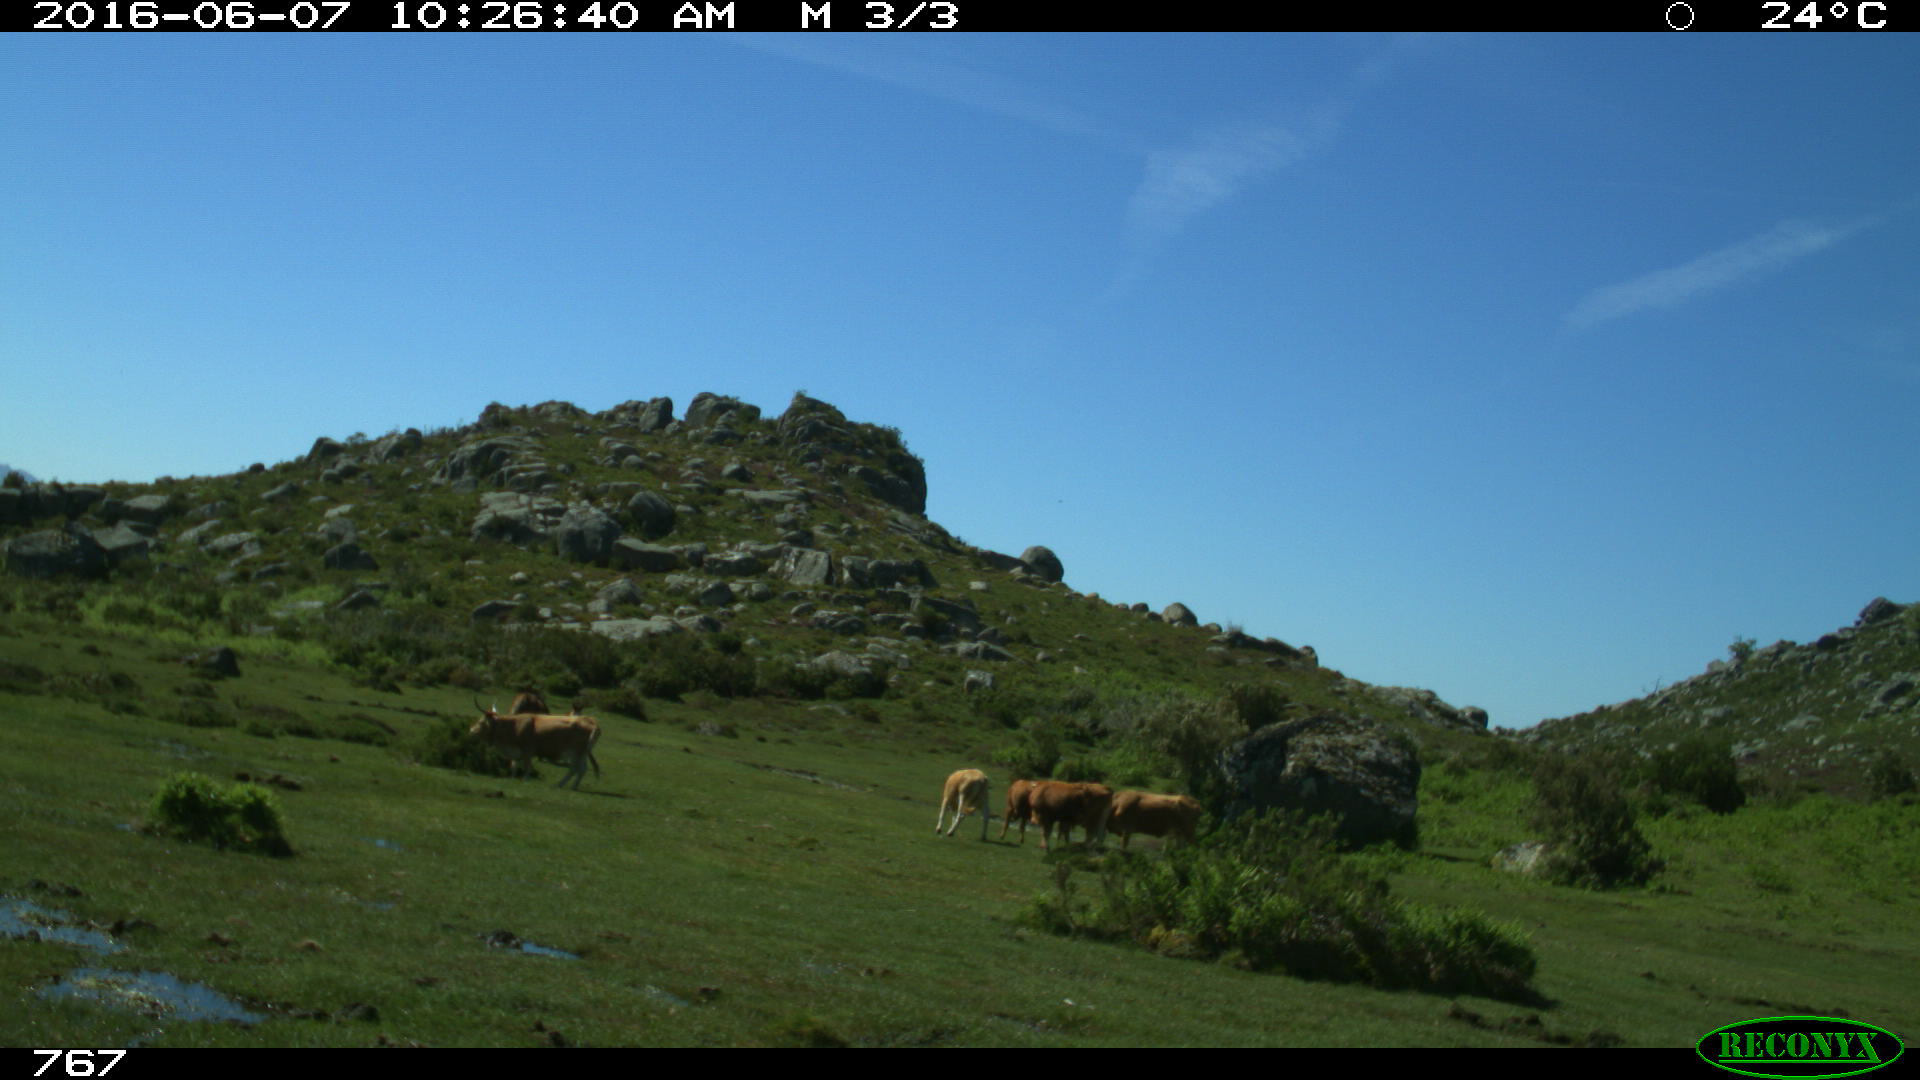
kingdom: Animalia
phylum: Chordata
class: Mammalia
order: Artiodactyla
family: Bovidae
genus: Bos
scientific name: Bos taurus
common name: Domesticated cattle
